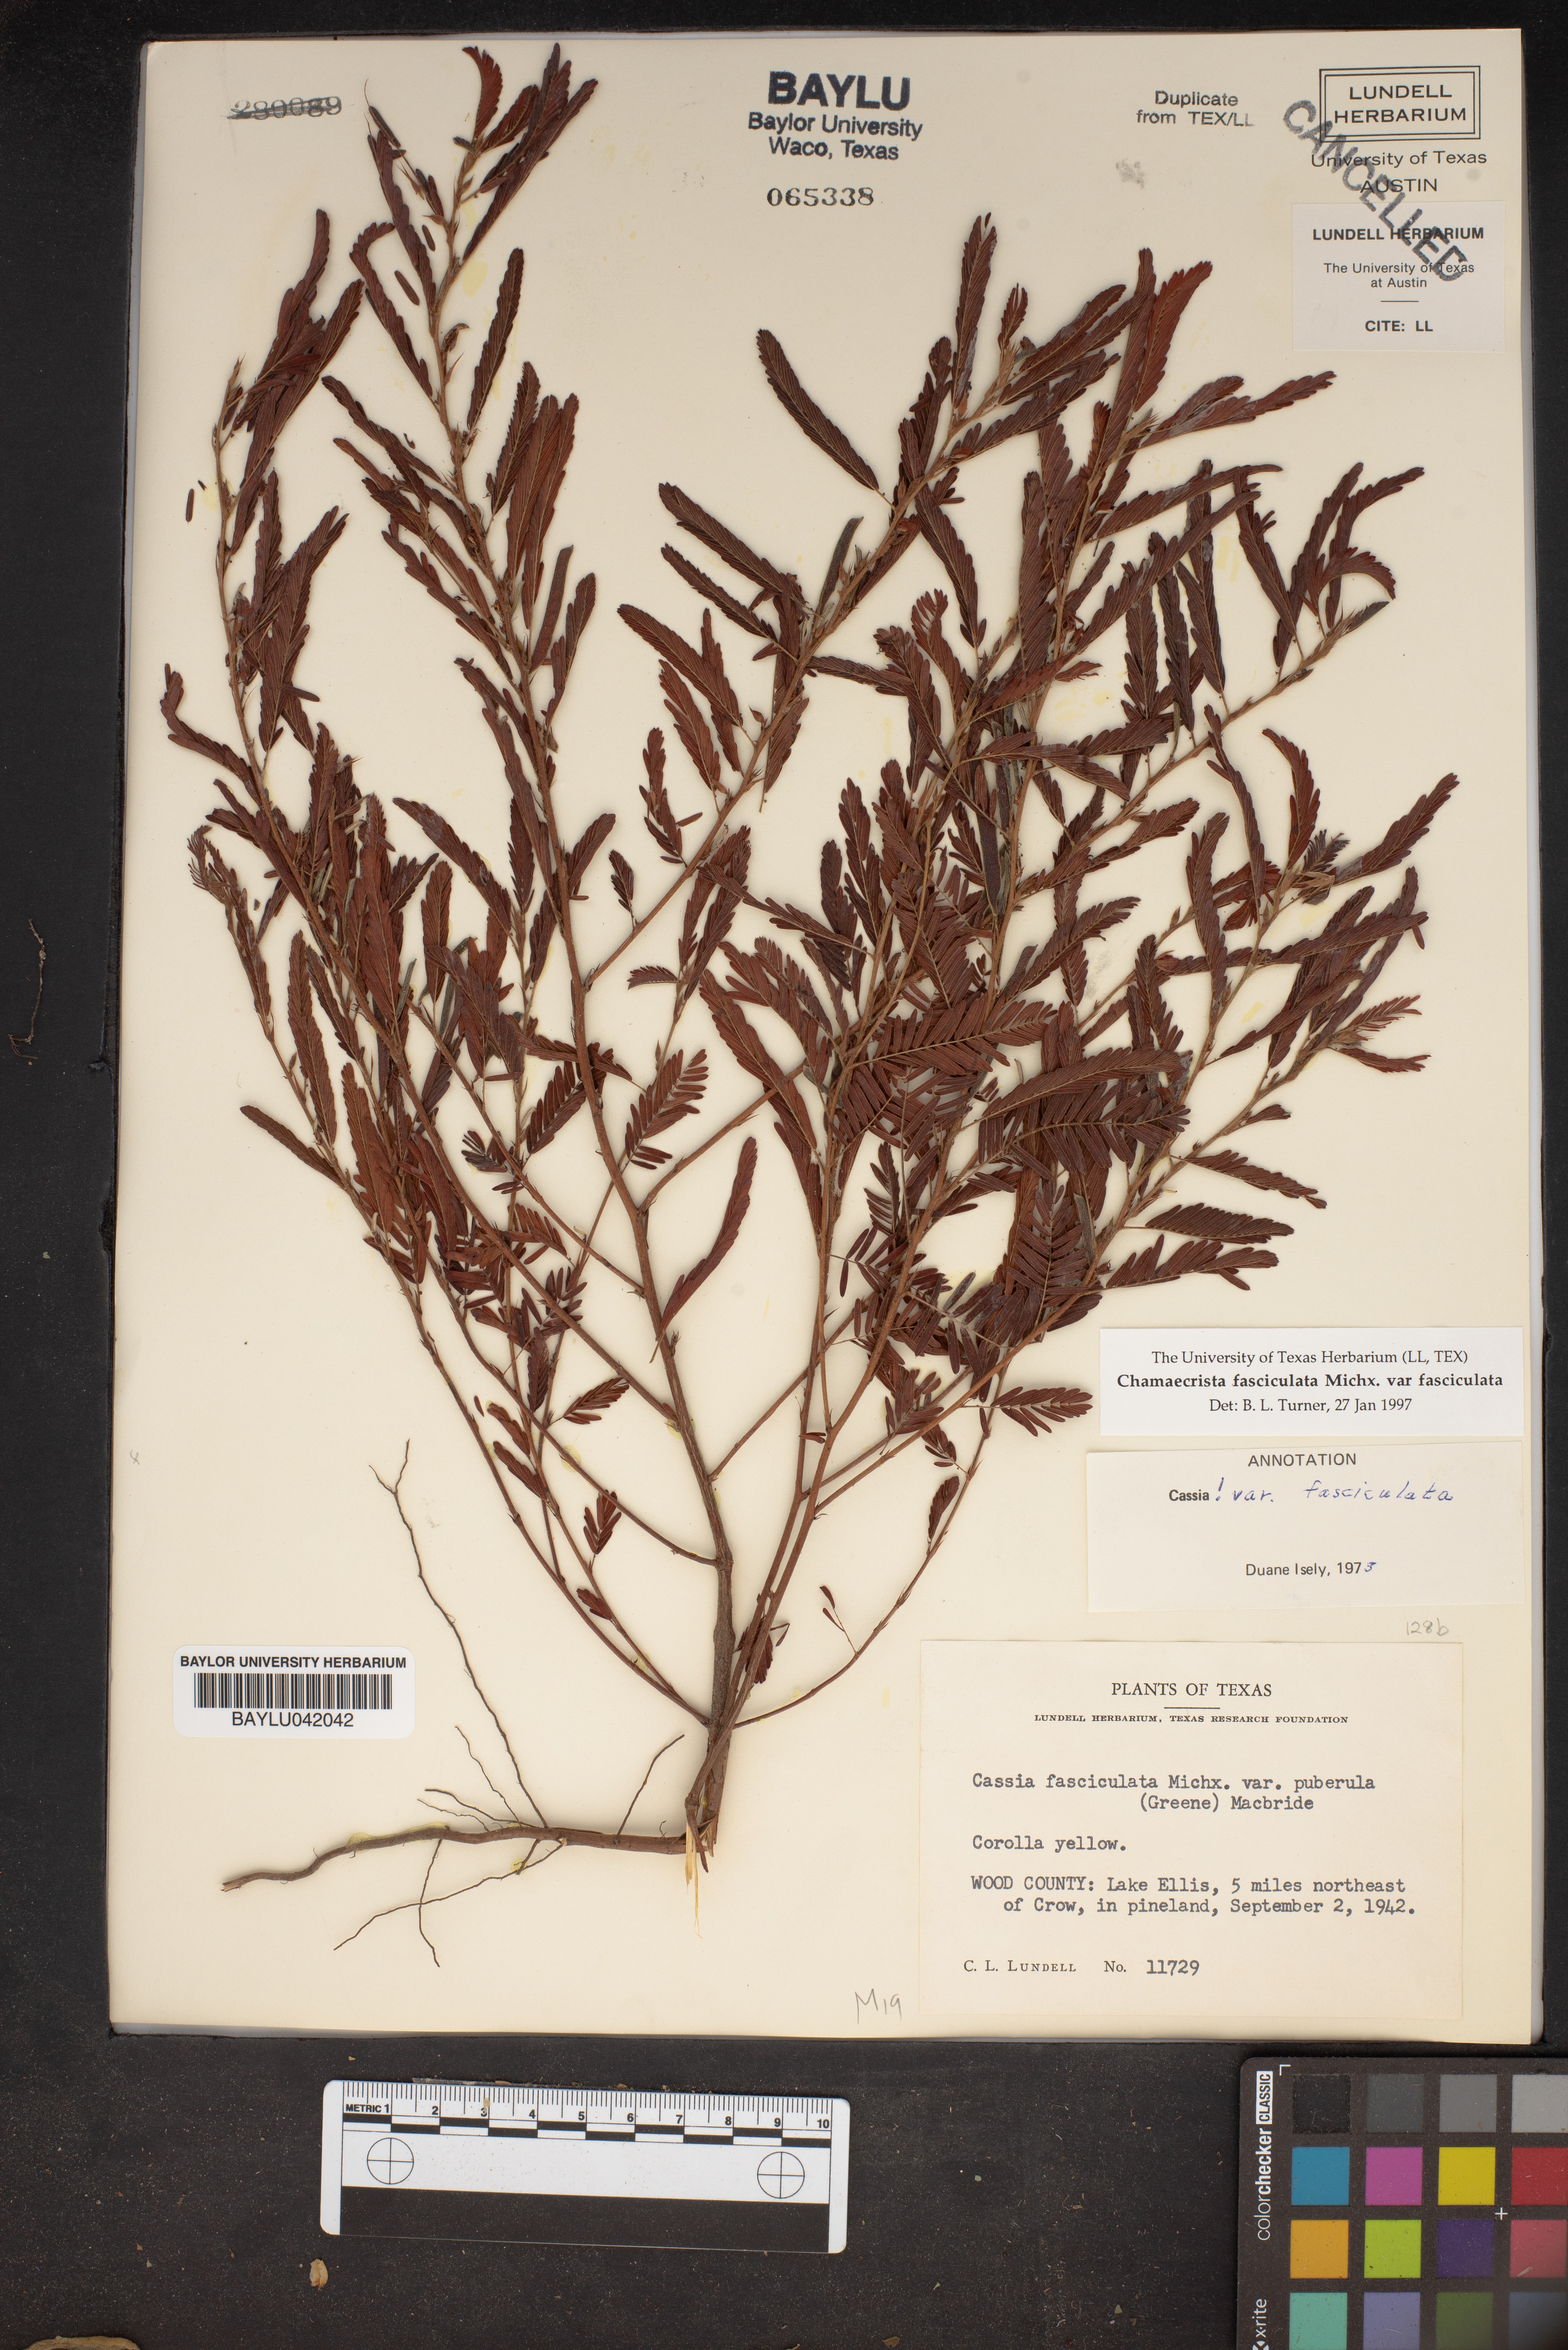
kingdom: Plantae
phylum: Tracheophyta
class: Magnoliopsida
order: Fabales
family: Fabaceae
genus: Chamaecrista
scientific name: Chamaecrista fasciculata
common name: Golden cassia
